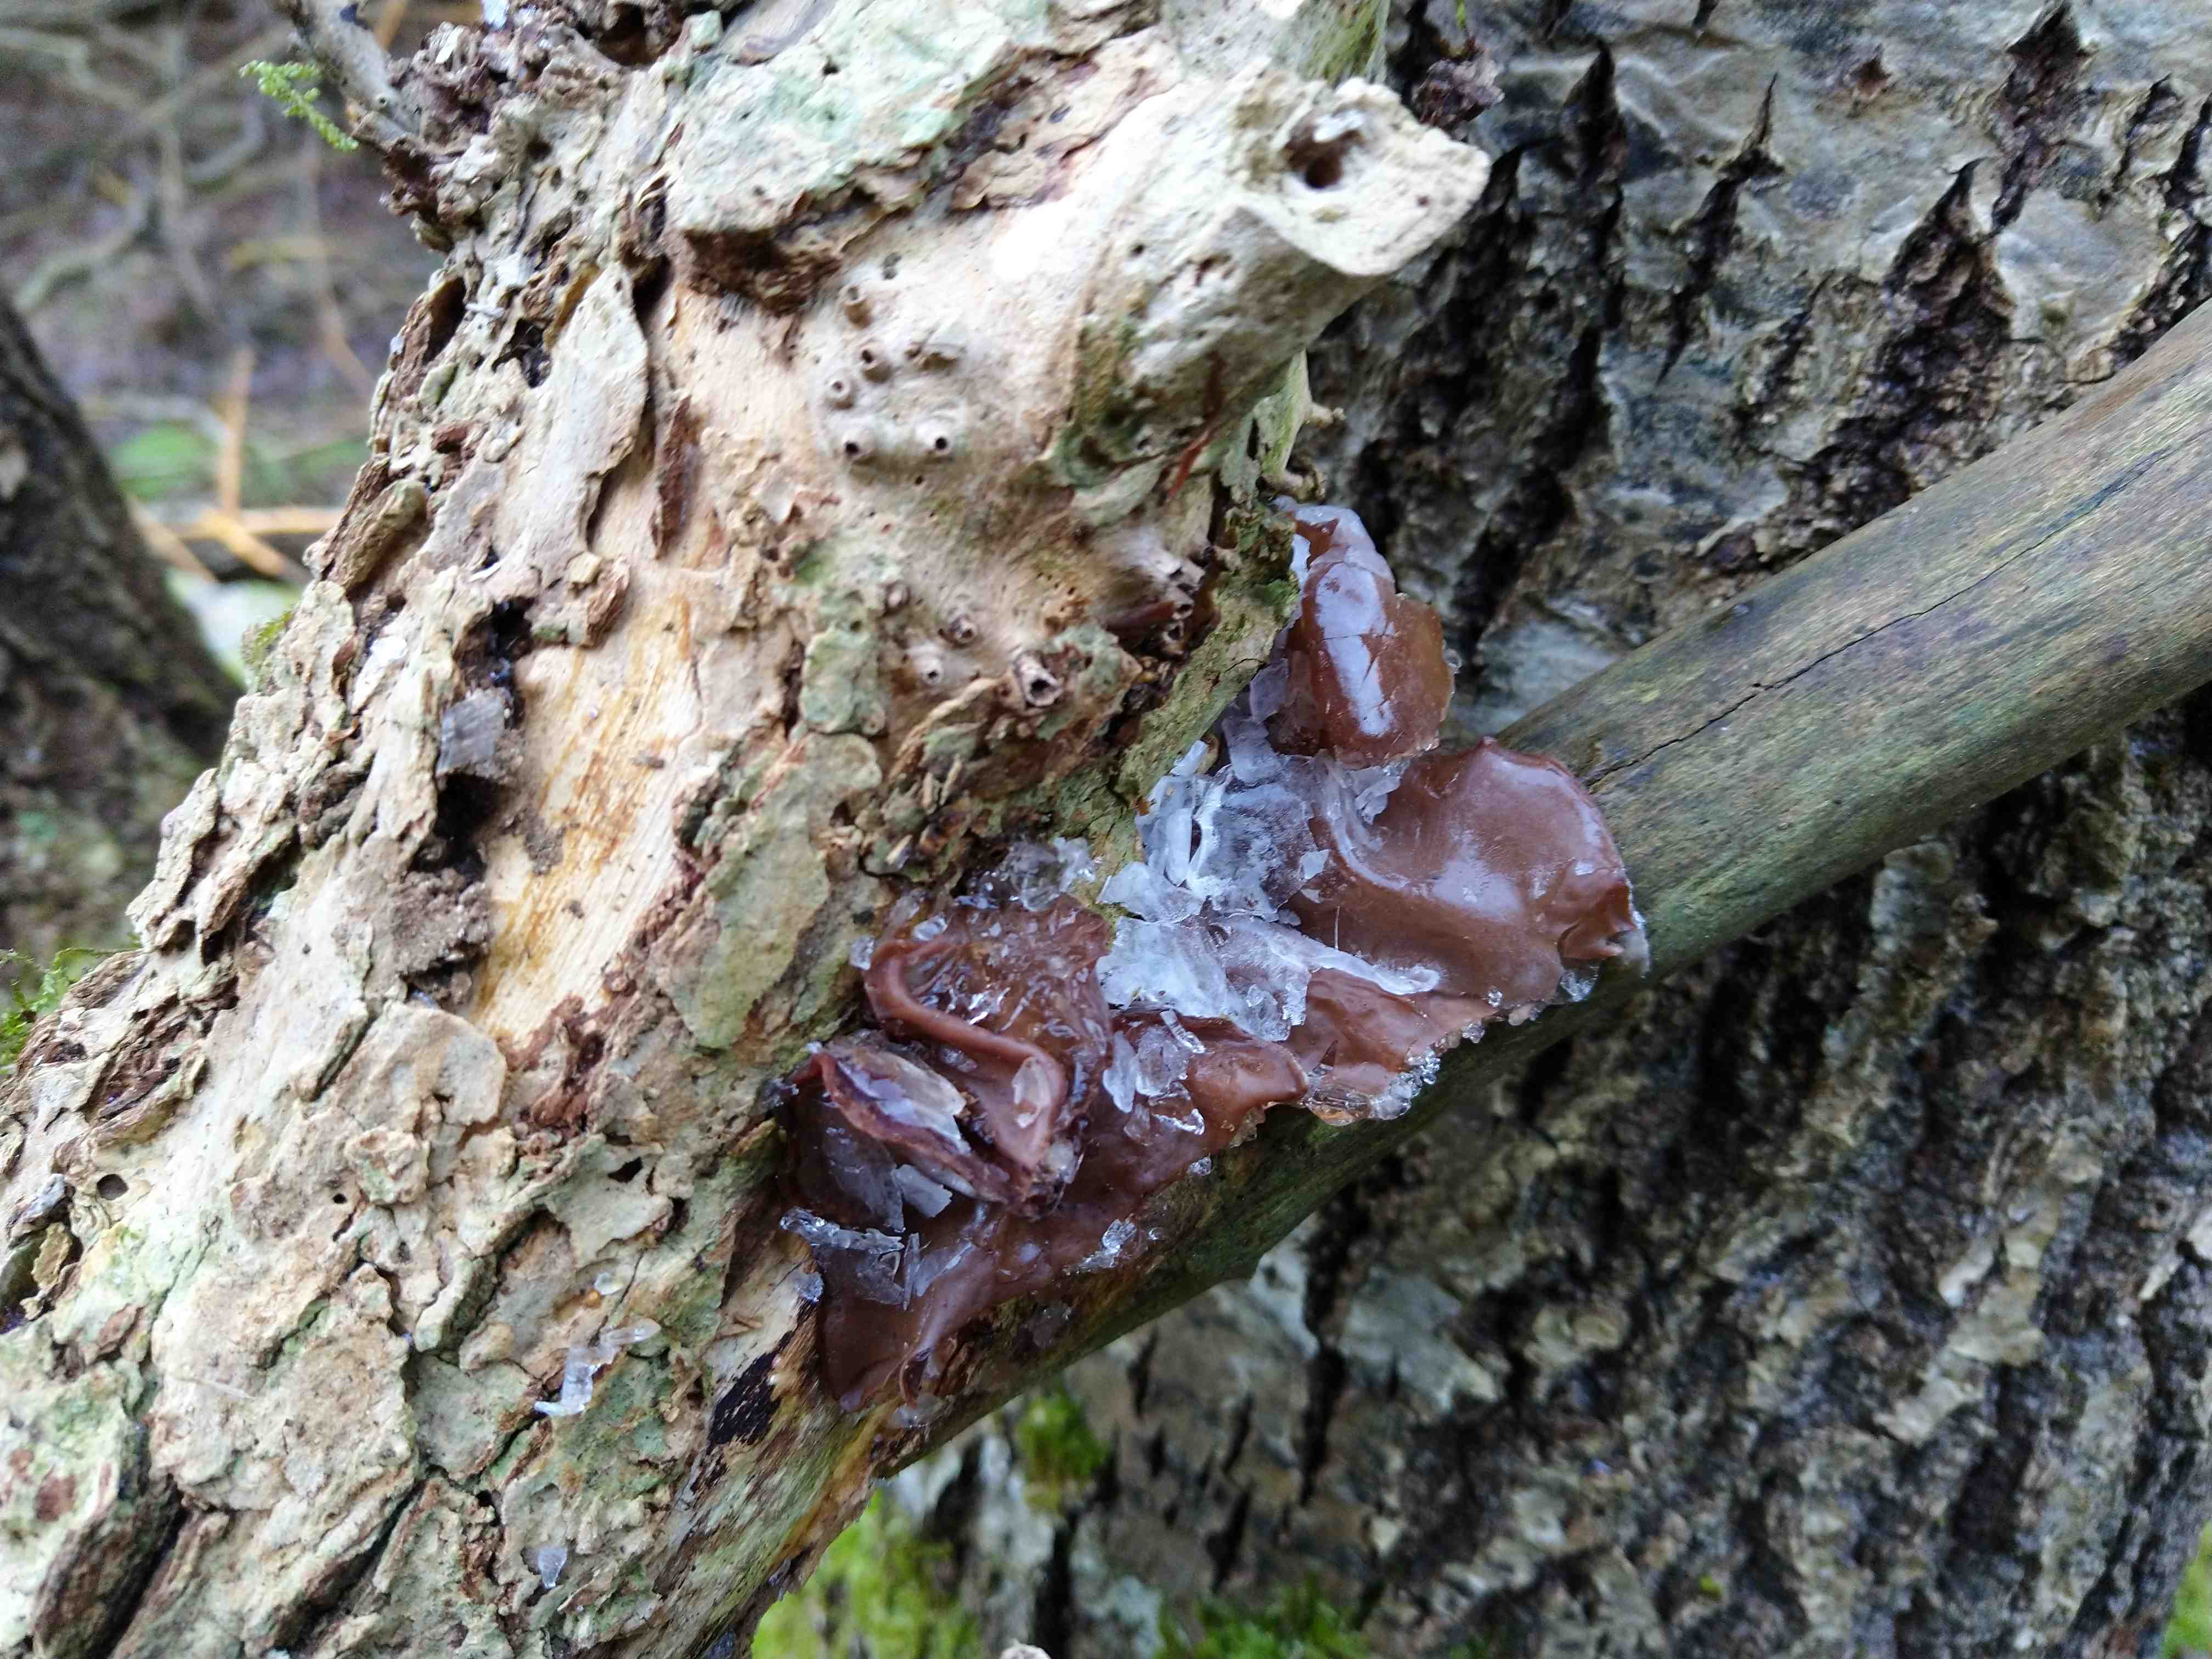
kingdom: Fungi
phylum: Basidiomycota
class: Agaricomycetes
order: Auriculariales
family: Auriculariaceae
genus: Auricularia
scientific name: Auricularia auricula-judae
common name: almindelig judasøre
